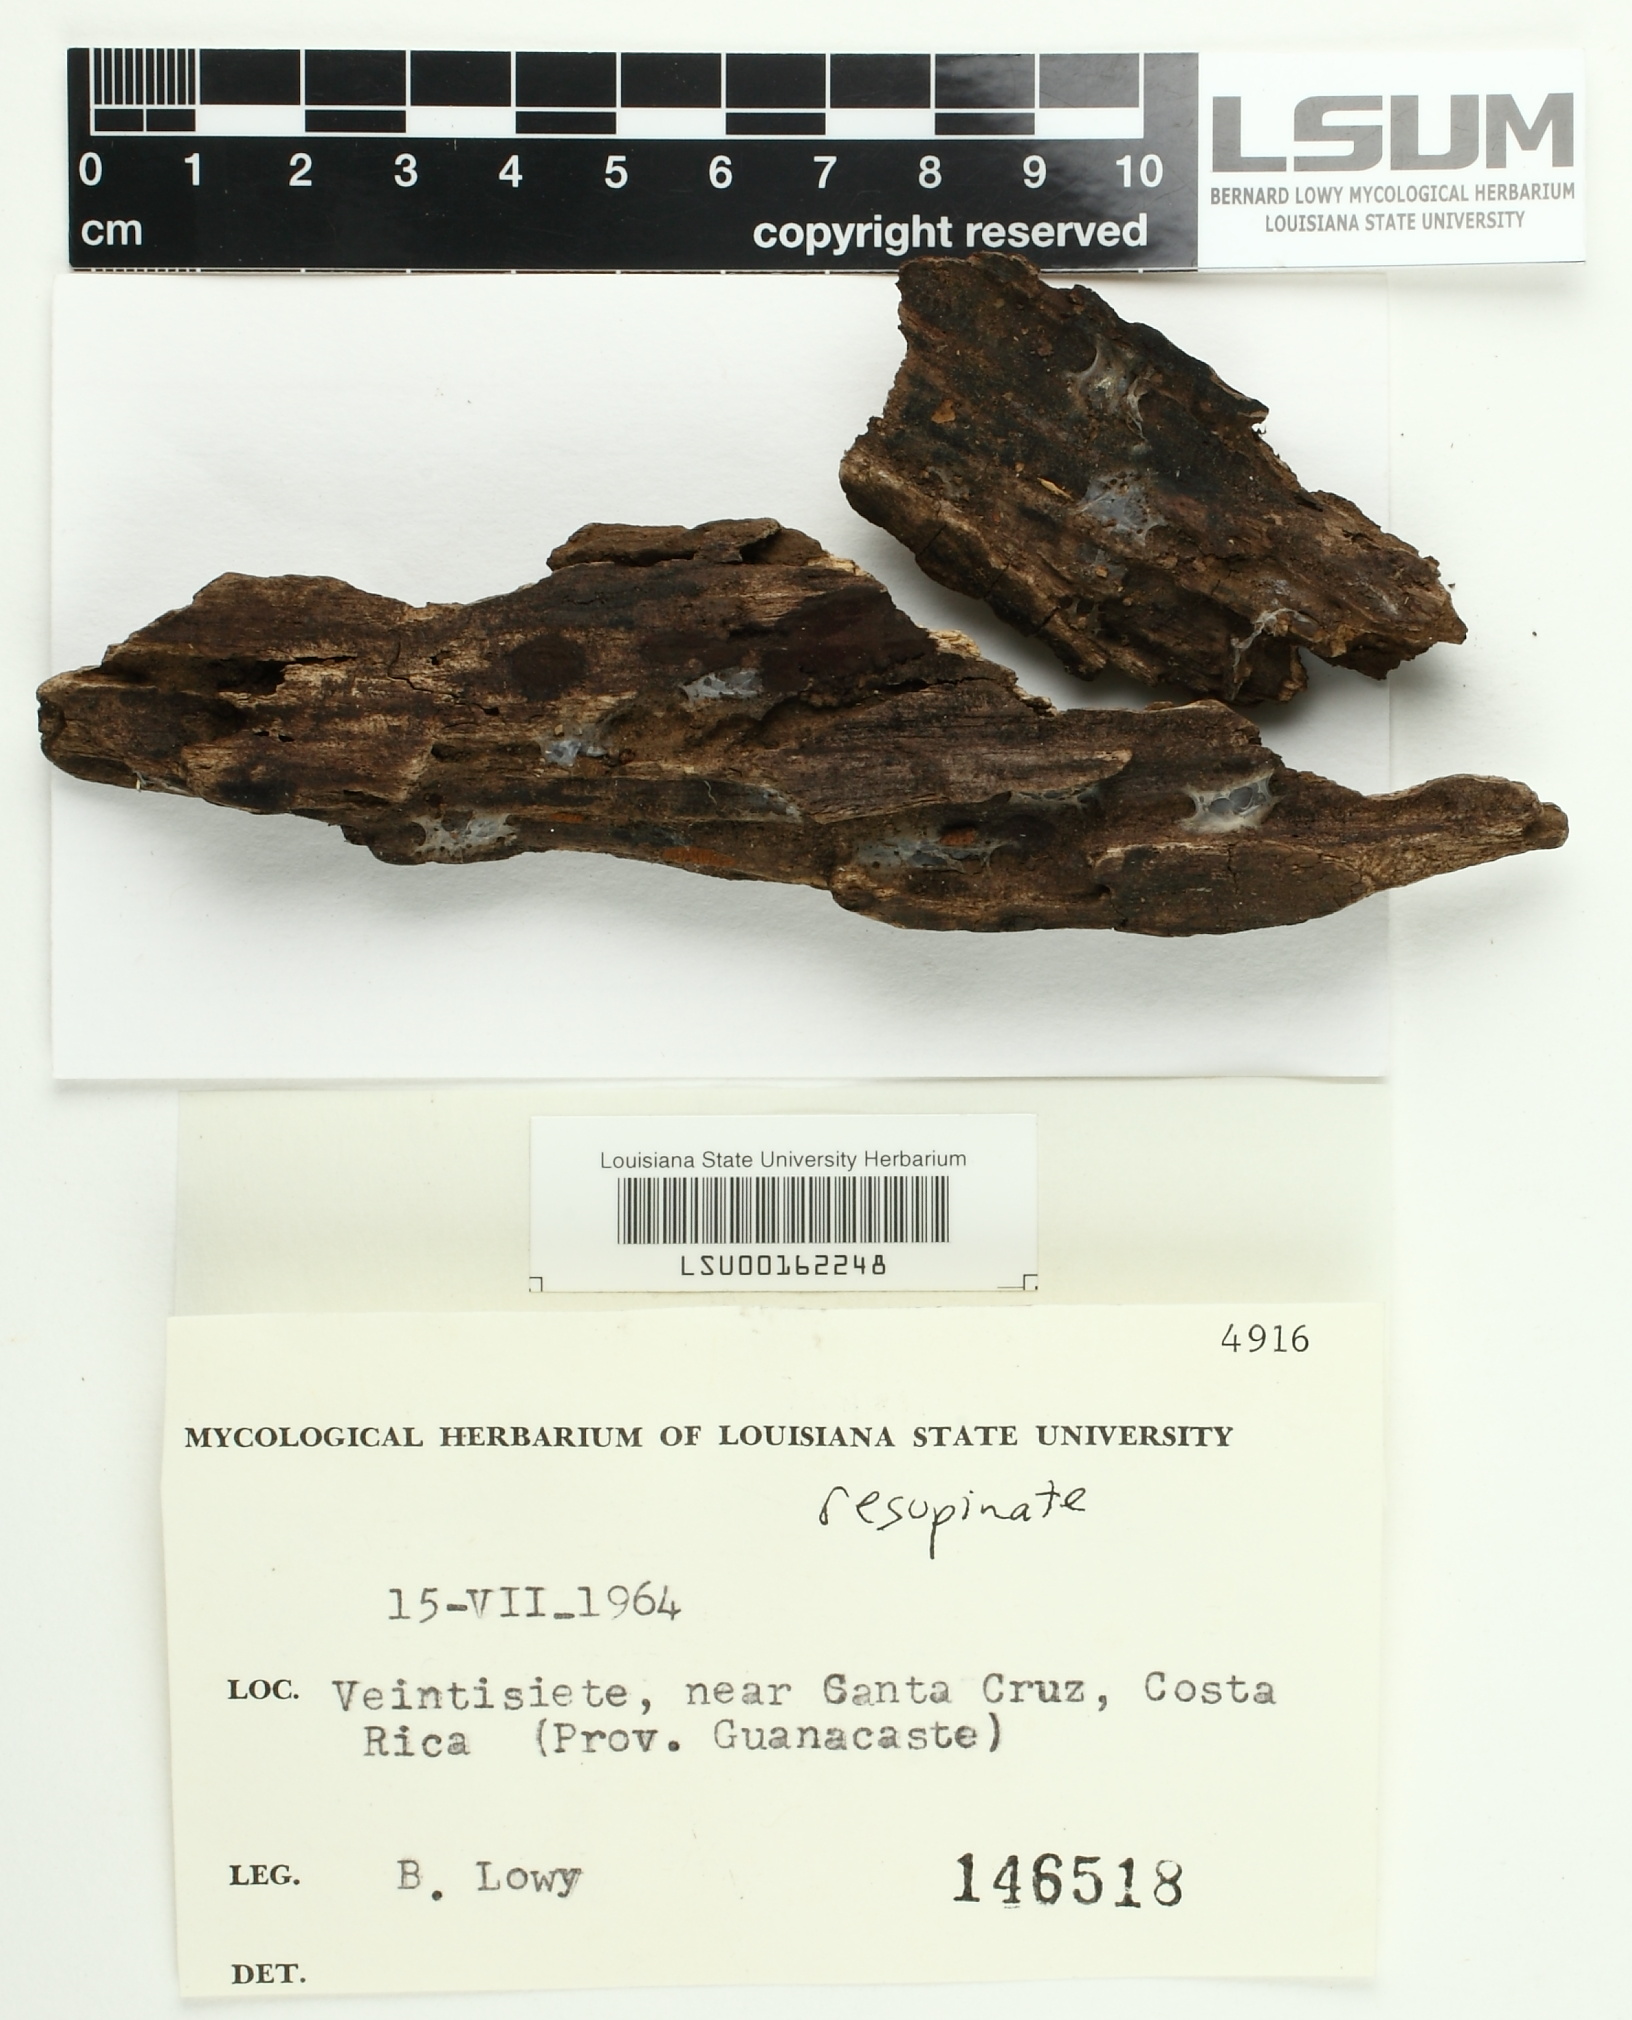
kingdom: Fungi
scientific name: Fungi
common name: Fungi
